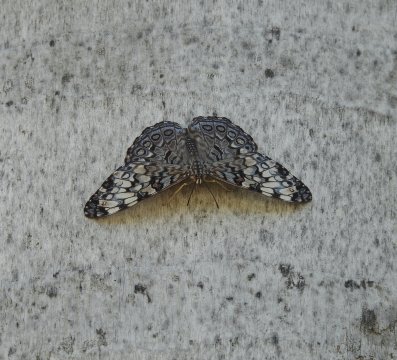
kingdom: Animalia
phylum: Arthropoda
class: Insecta
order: Lepidoptera
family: Nymphalidae
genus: Hamadryas
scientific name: Hamadryas guatemalena
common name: Guatemalan Cracker
